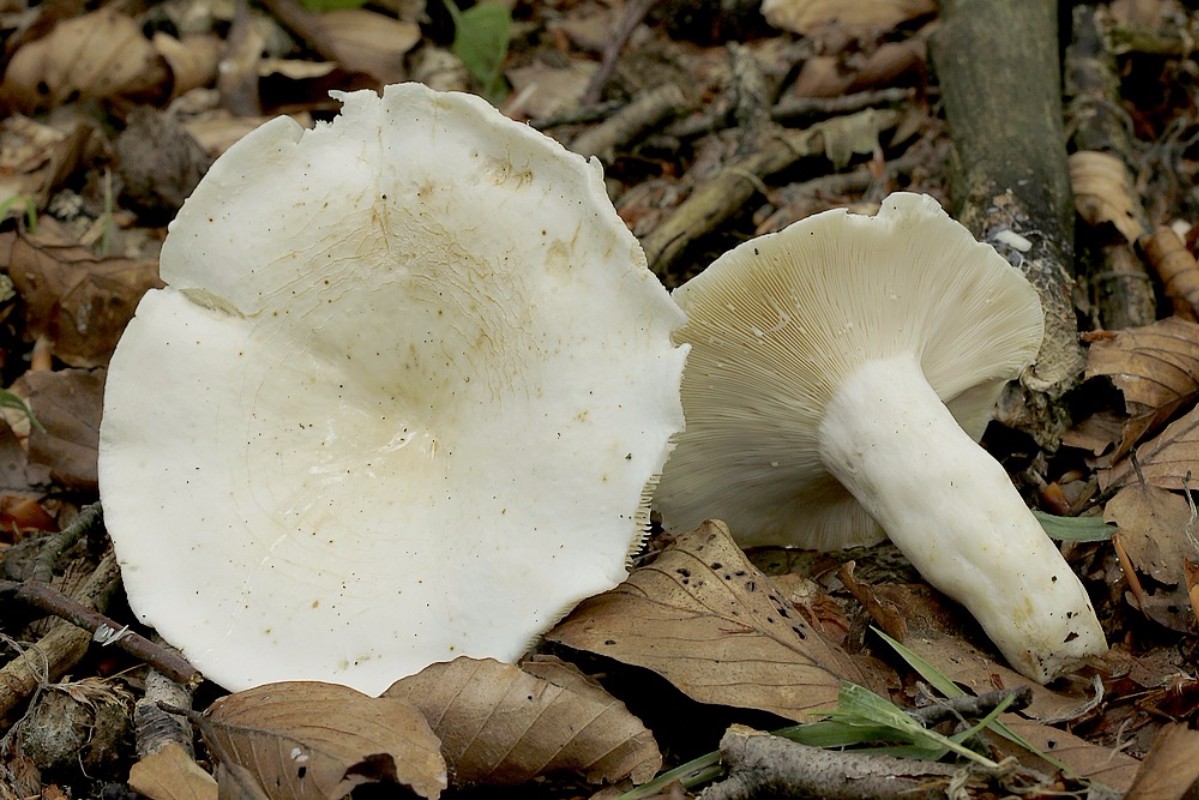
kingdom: Fungi
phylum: Basidiomycota
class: Agaricomycetes
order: Russulales
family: Russulaceae
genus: Lactifluus
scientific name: Lactifluus piperatus
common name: peber-mælkehat
